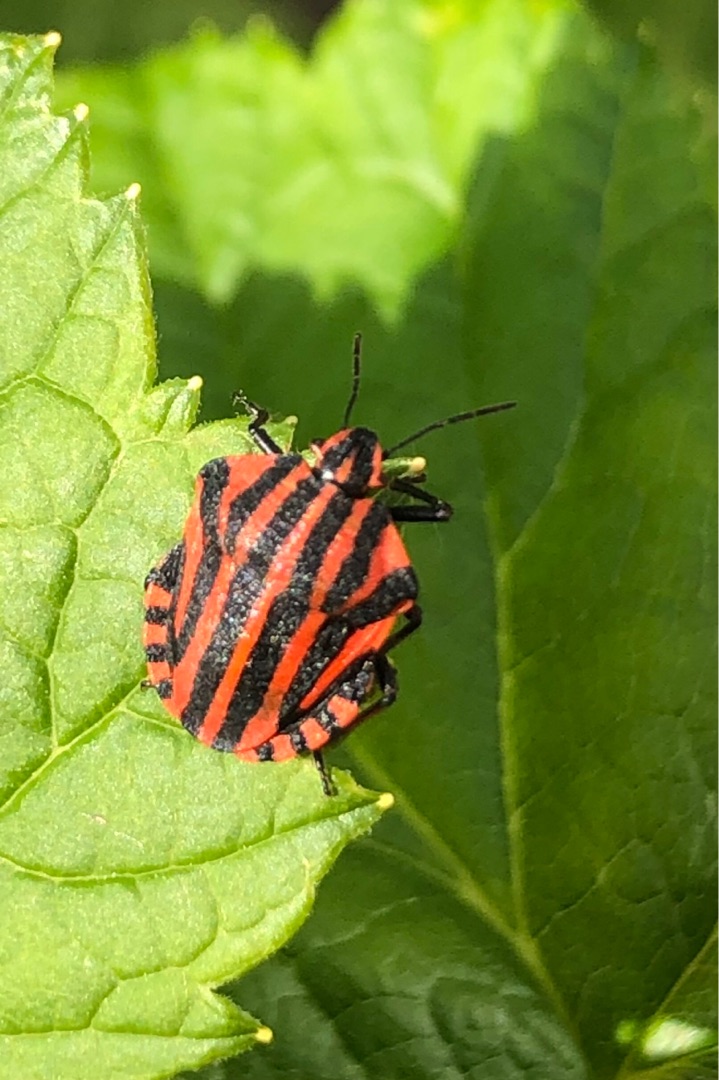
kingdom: Animalia
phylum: Arthropoda
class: Insecta
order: Hemiptera
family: Pentatomidae
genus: Graphosoma
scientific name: Graphosoma italicum
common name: Stribetæge
